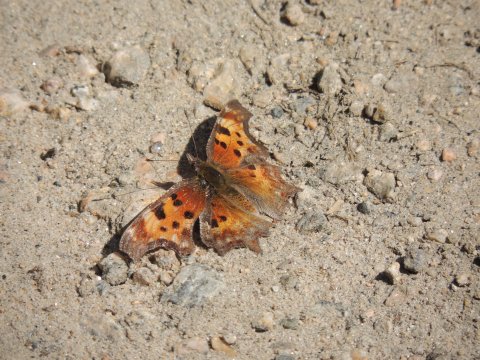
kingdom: Animalia
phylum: Arthropoda
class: Insecta
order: Lepidoptera
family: Nymphalidae
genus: Polygonia
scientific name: Polygonia gracilis
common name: Hoary Comma
